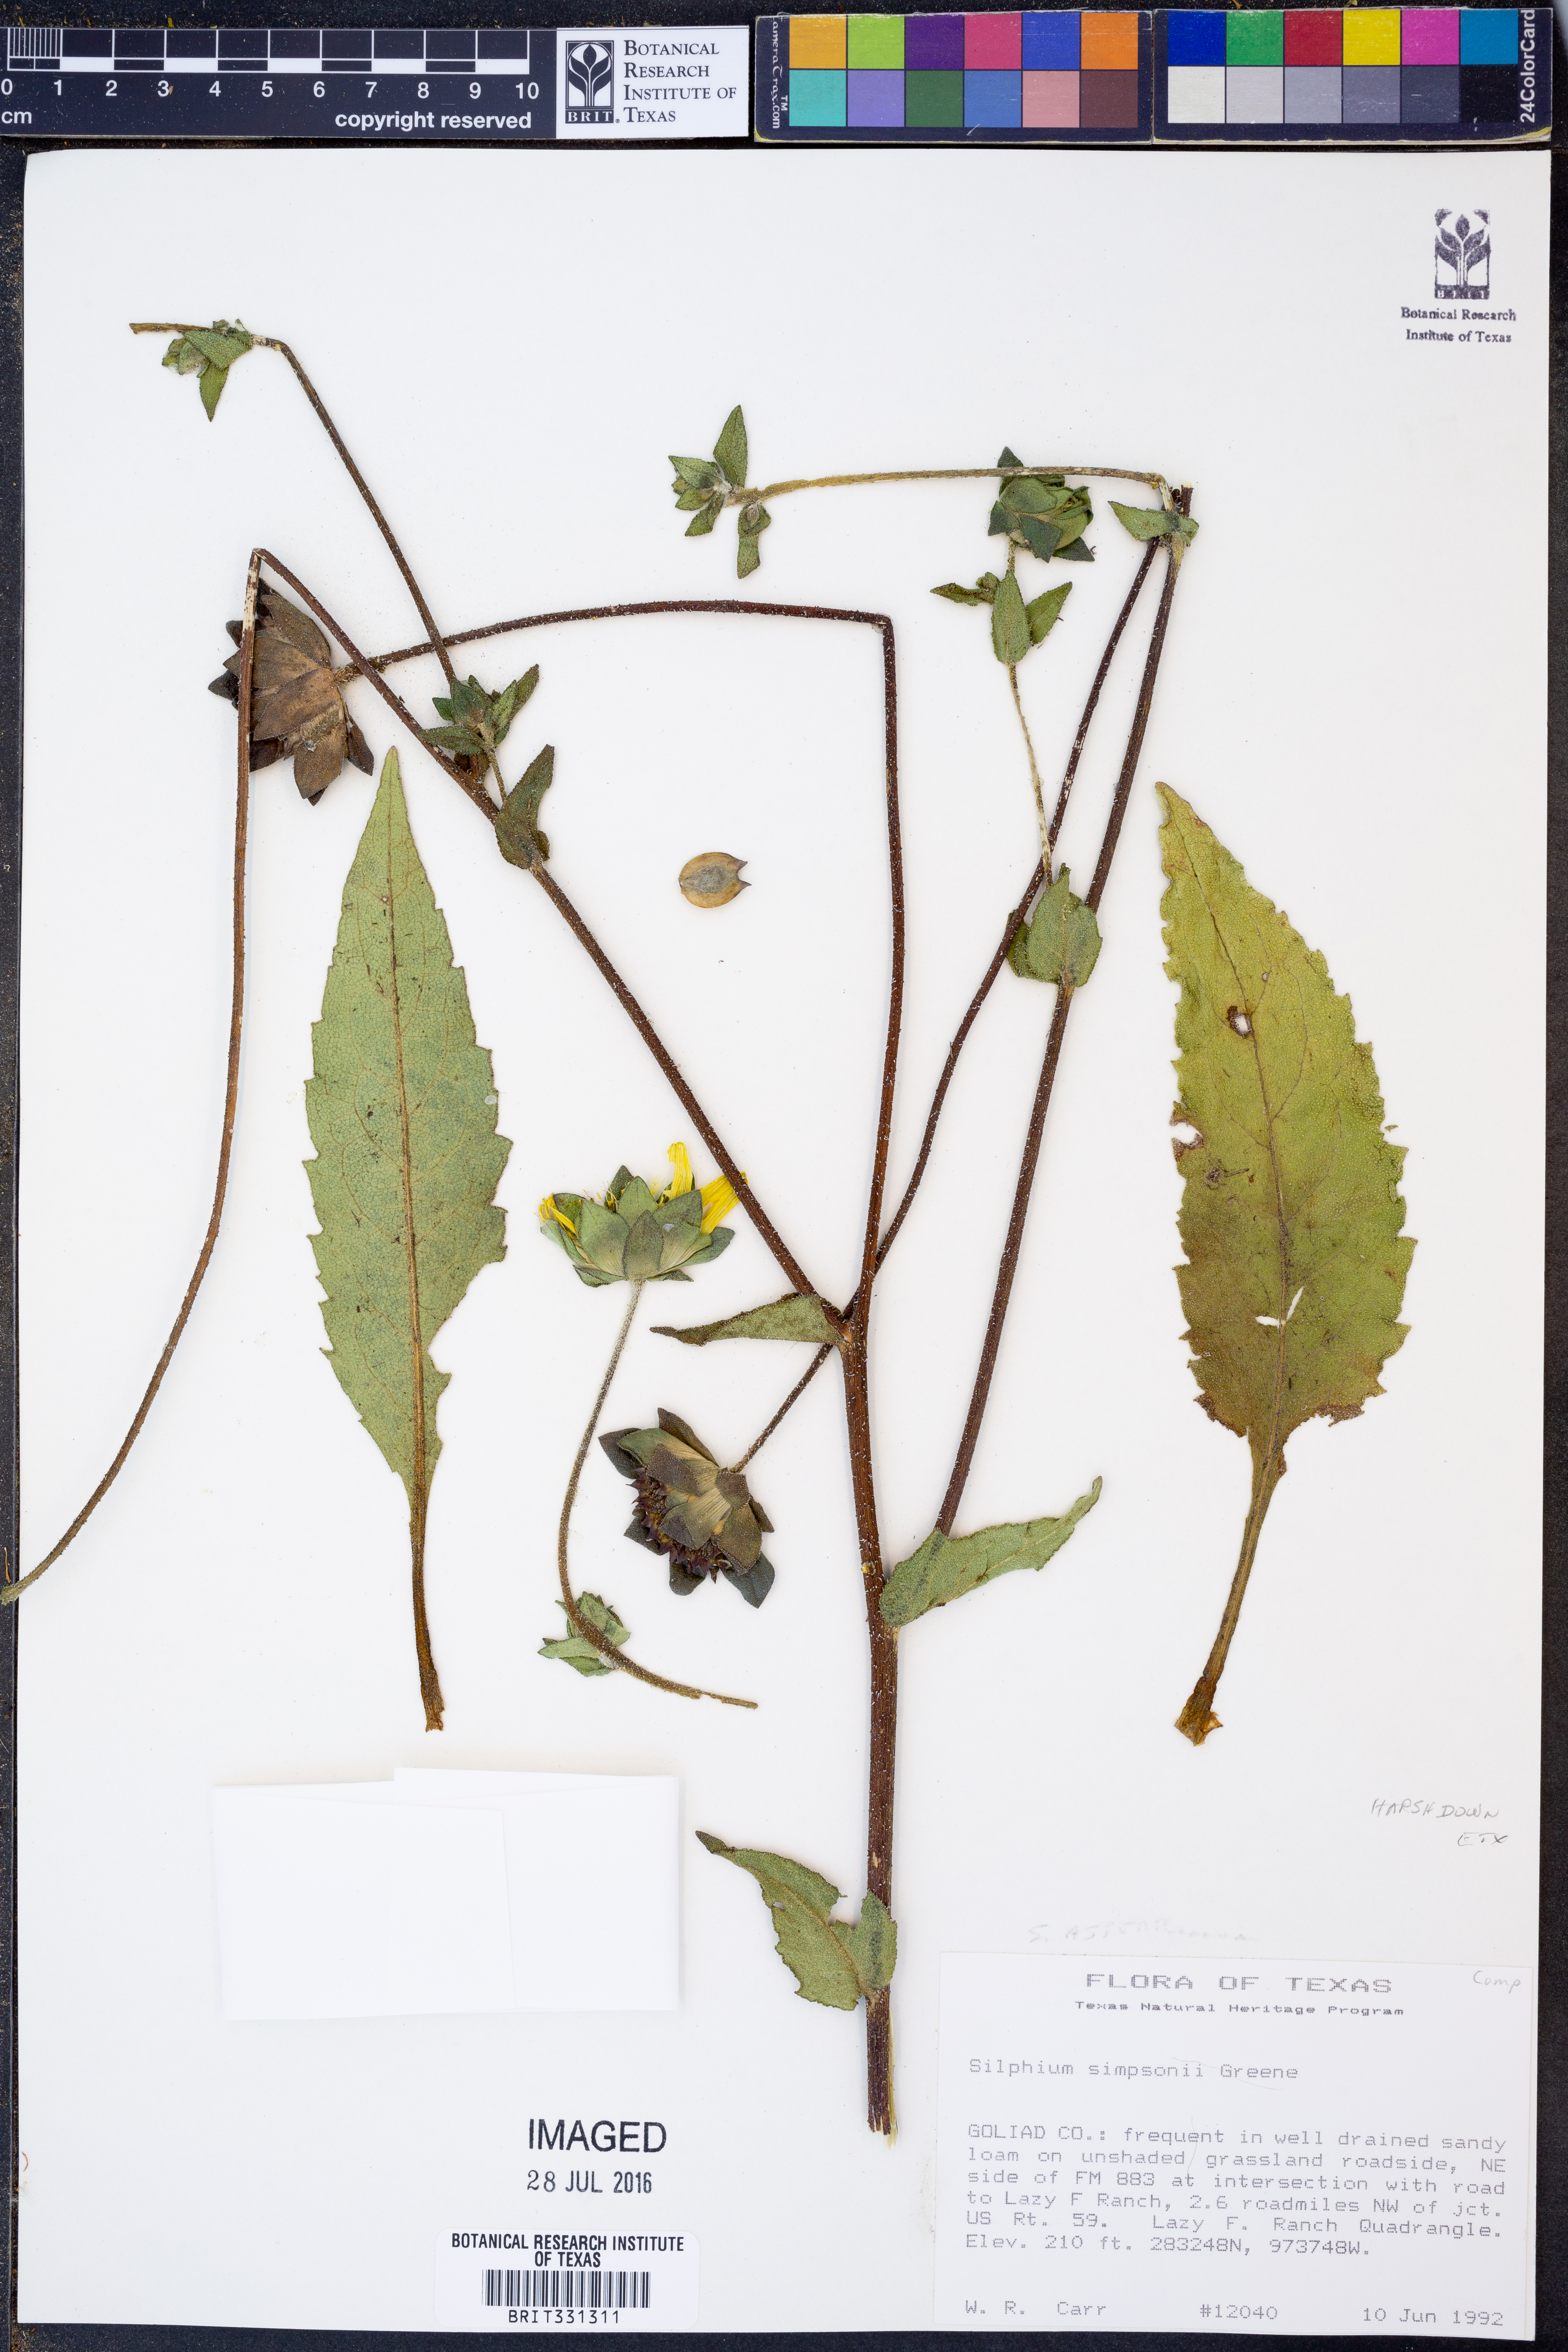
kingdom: Plantae
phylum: Tracheophyta
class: Magnoliopsida
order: Asterales
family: Asteraceae
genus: Silphium
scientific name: Silphium asteriscus
